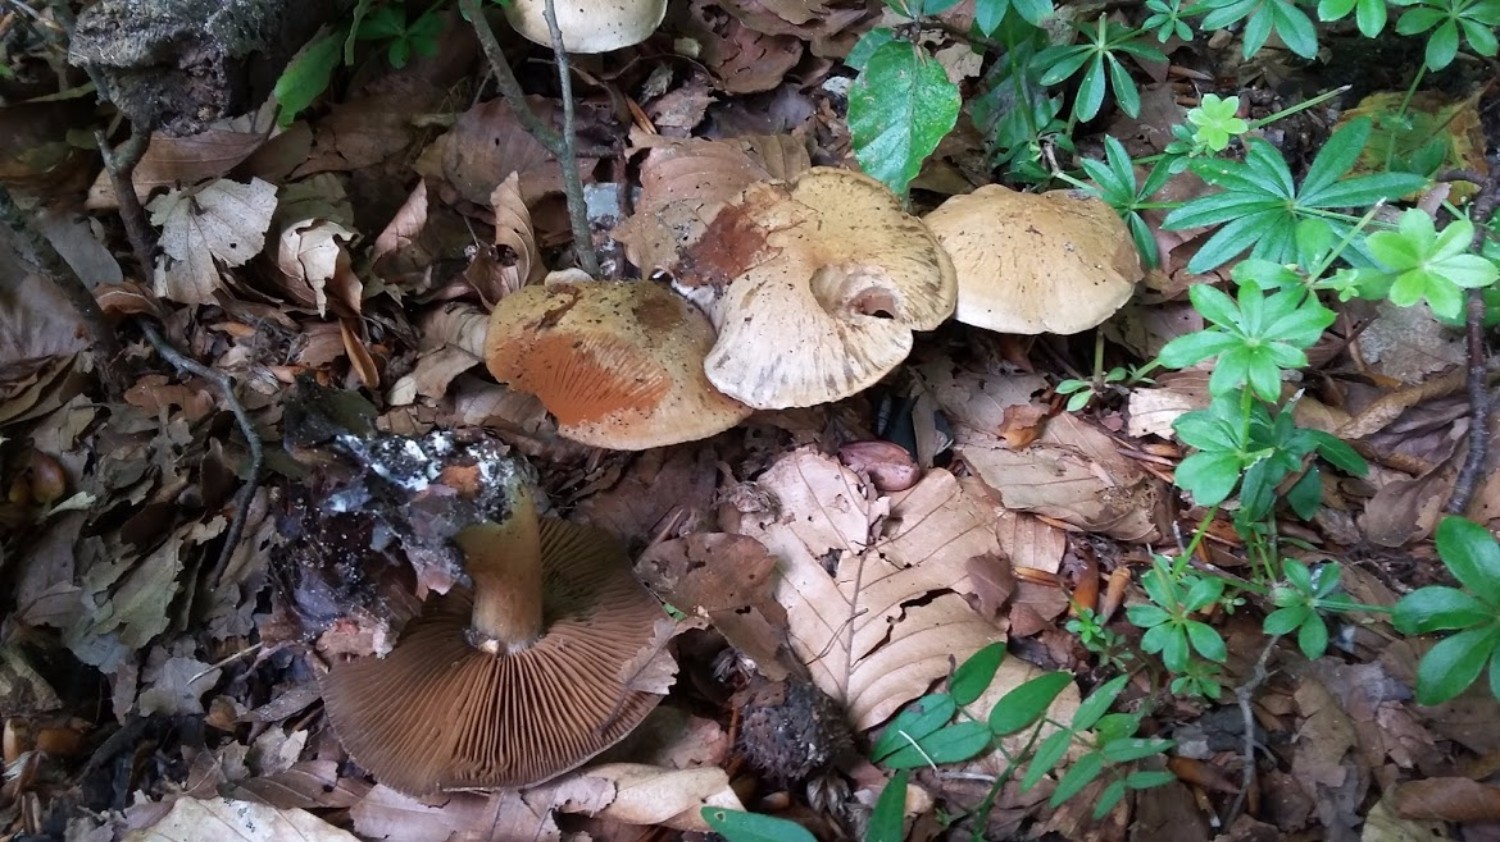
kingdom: Fungi
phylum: Basidiomycota
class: Agaricomycetes
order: Agaricales
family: Cortinariaceae
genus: Cortinarius
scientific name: Cortinarius
